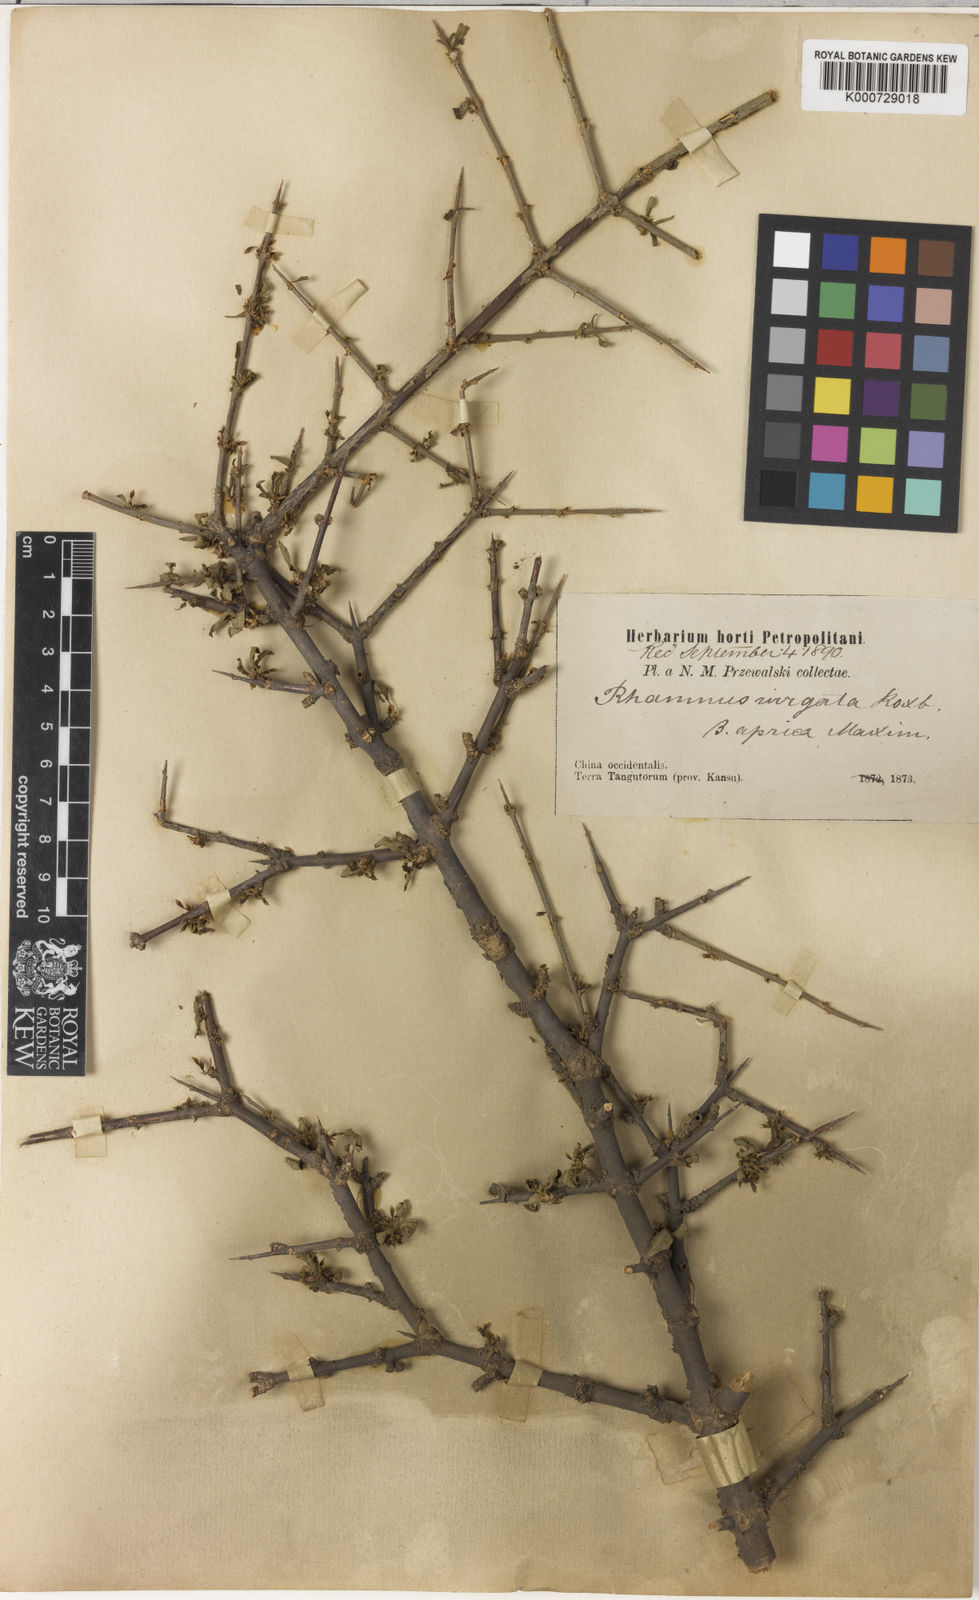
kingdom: Plantae
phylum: Tracheophyta
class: Magnoliopsida
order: Rosales
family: Rhamnaceae
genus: Rhamnus
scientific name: Rhamnus globosa
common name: Lokao
